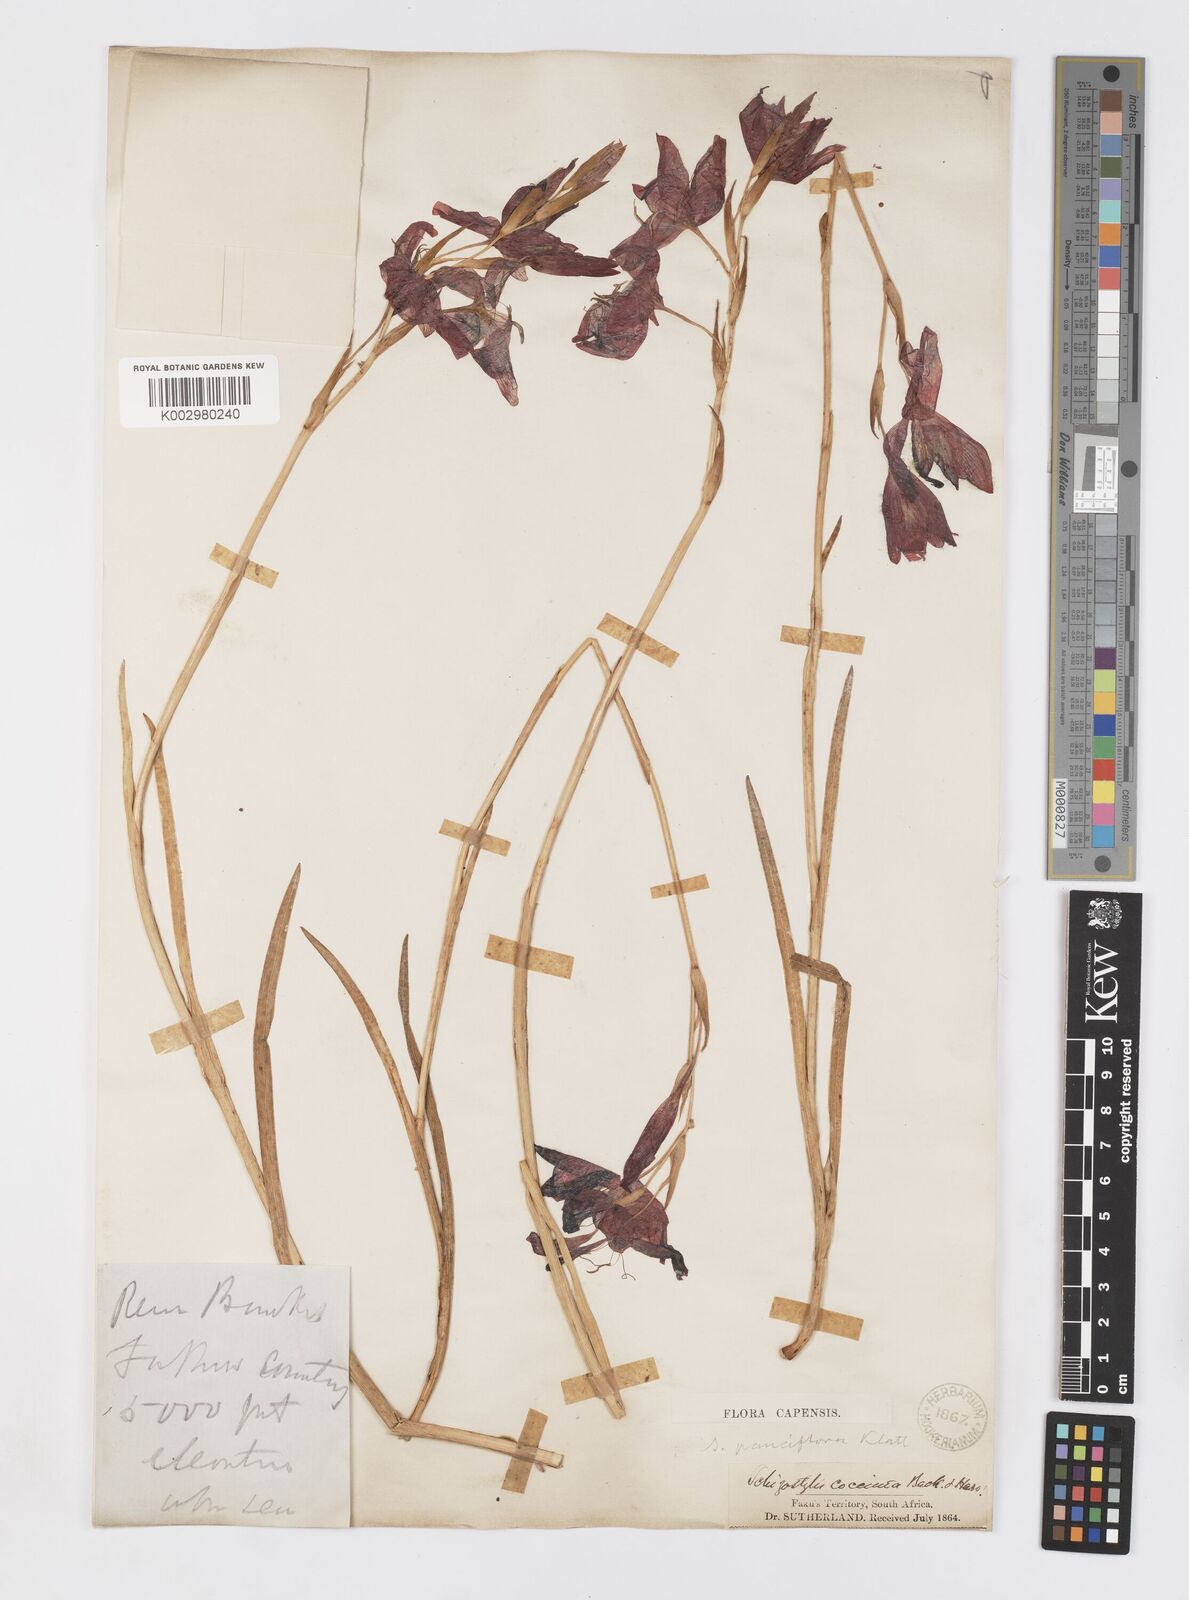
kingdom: Plantae
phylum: Tracheophyta
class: Liliopsida
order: Asparagales
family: Iridaceae
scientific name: Iridaceae
